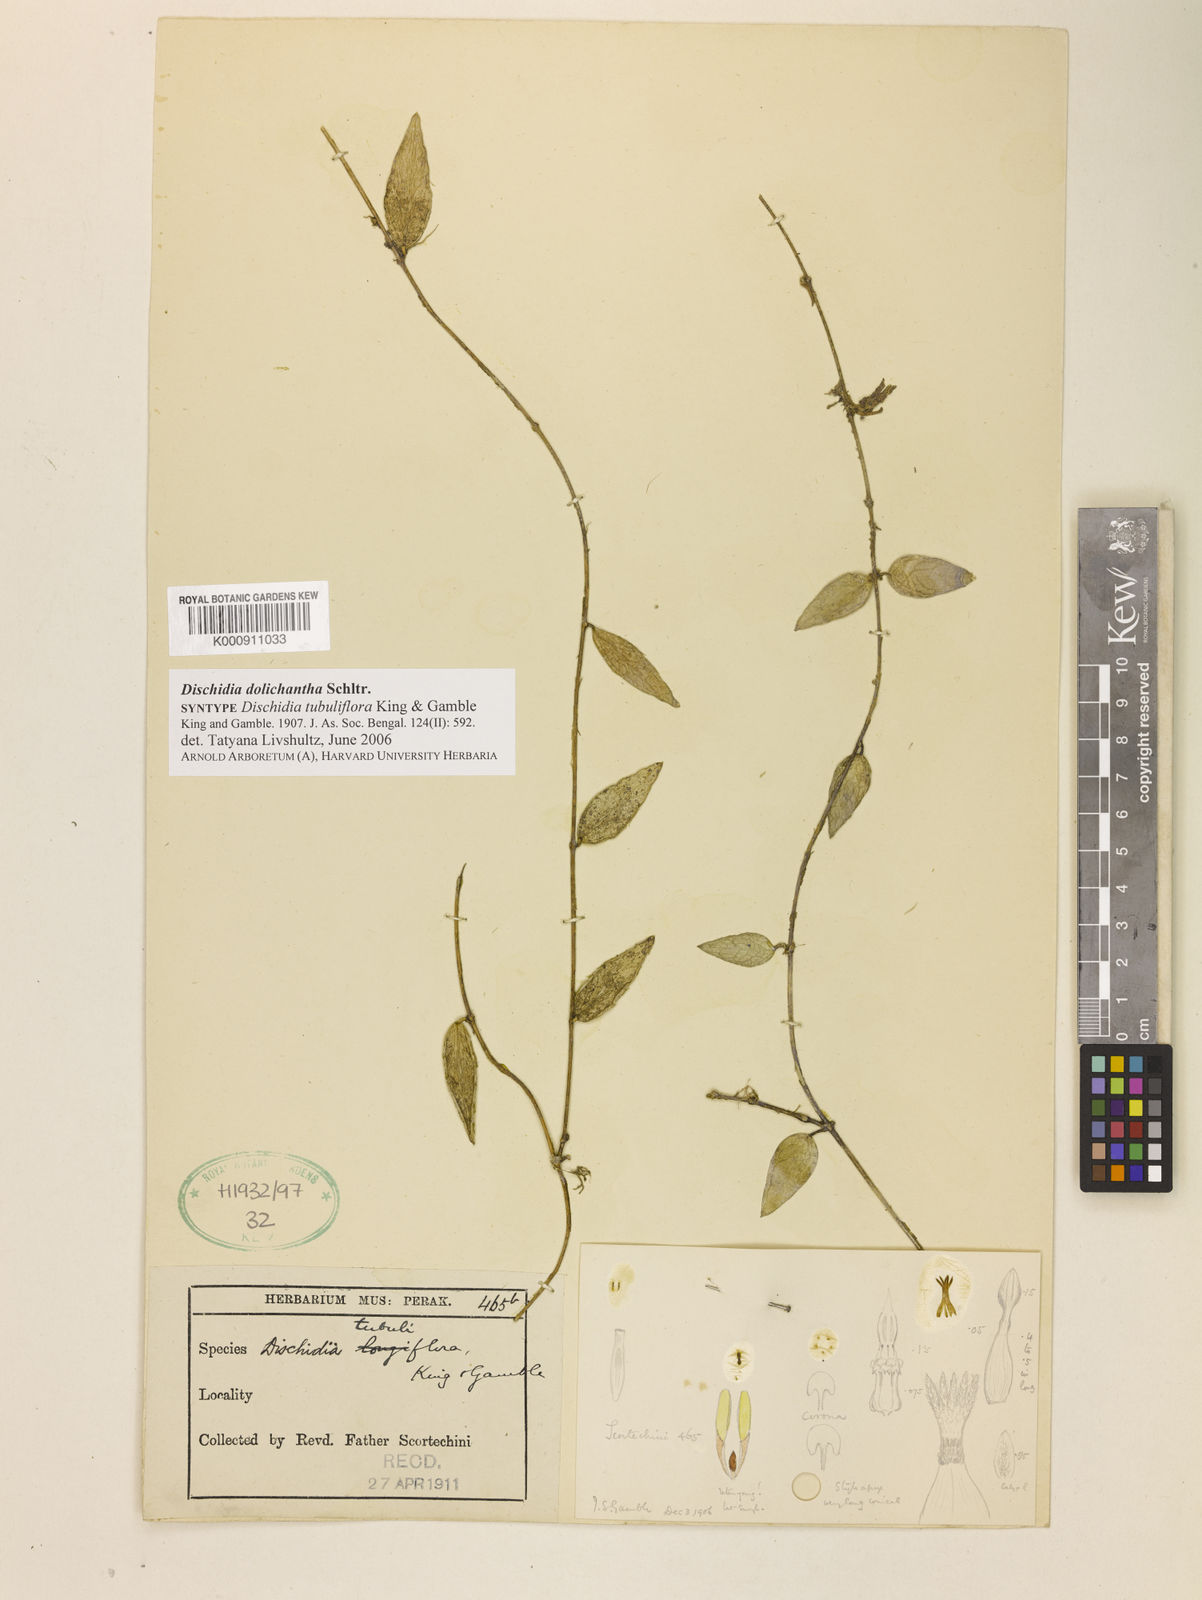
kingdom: Plantae
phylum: Tracheophyta
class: Magnoliopsida
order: Gentianales
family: Apocynaceae
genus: Dischidia
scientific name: Dischidia dolichantha
